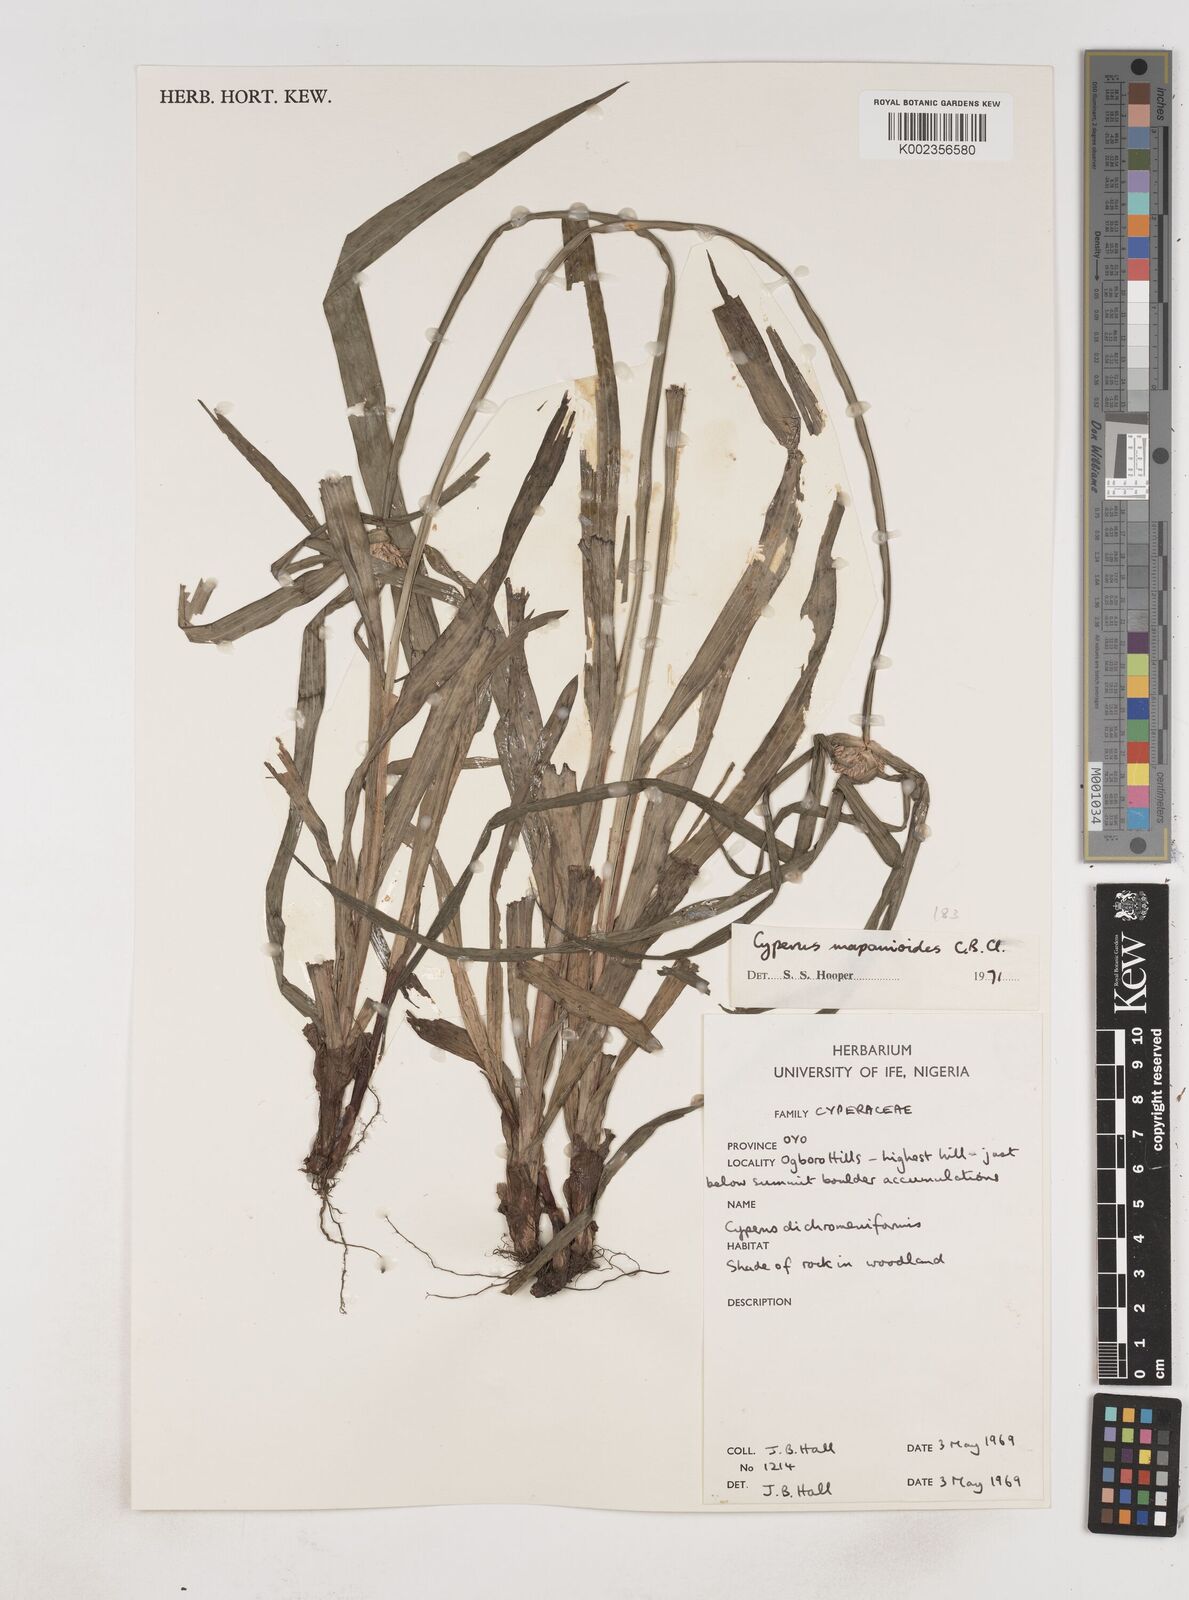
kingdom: Plantae
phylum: Tracheophyta
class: Liliopsida
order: Poales
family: Cyperaceae
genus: Cyperus
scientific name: Cyperus mapanioides
